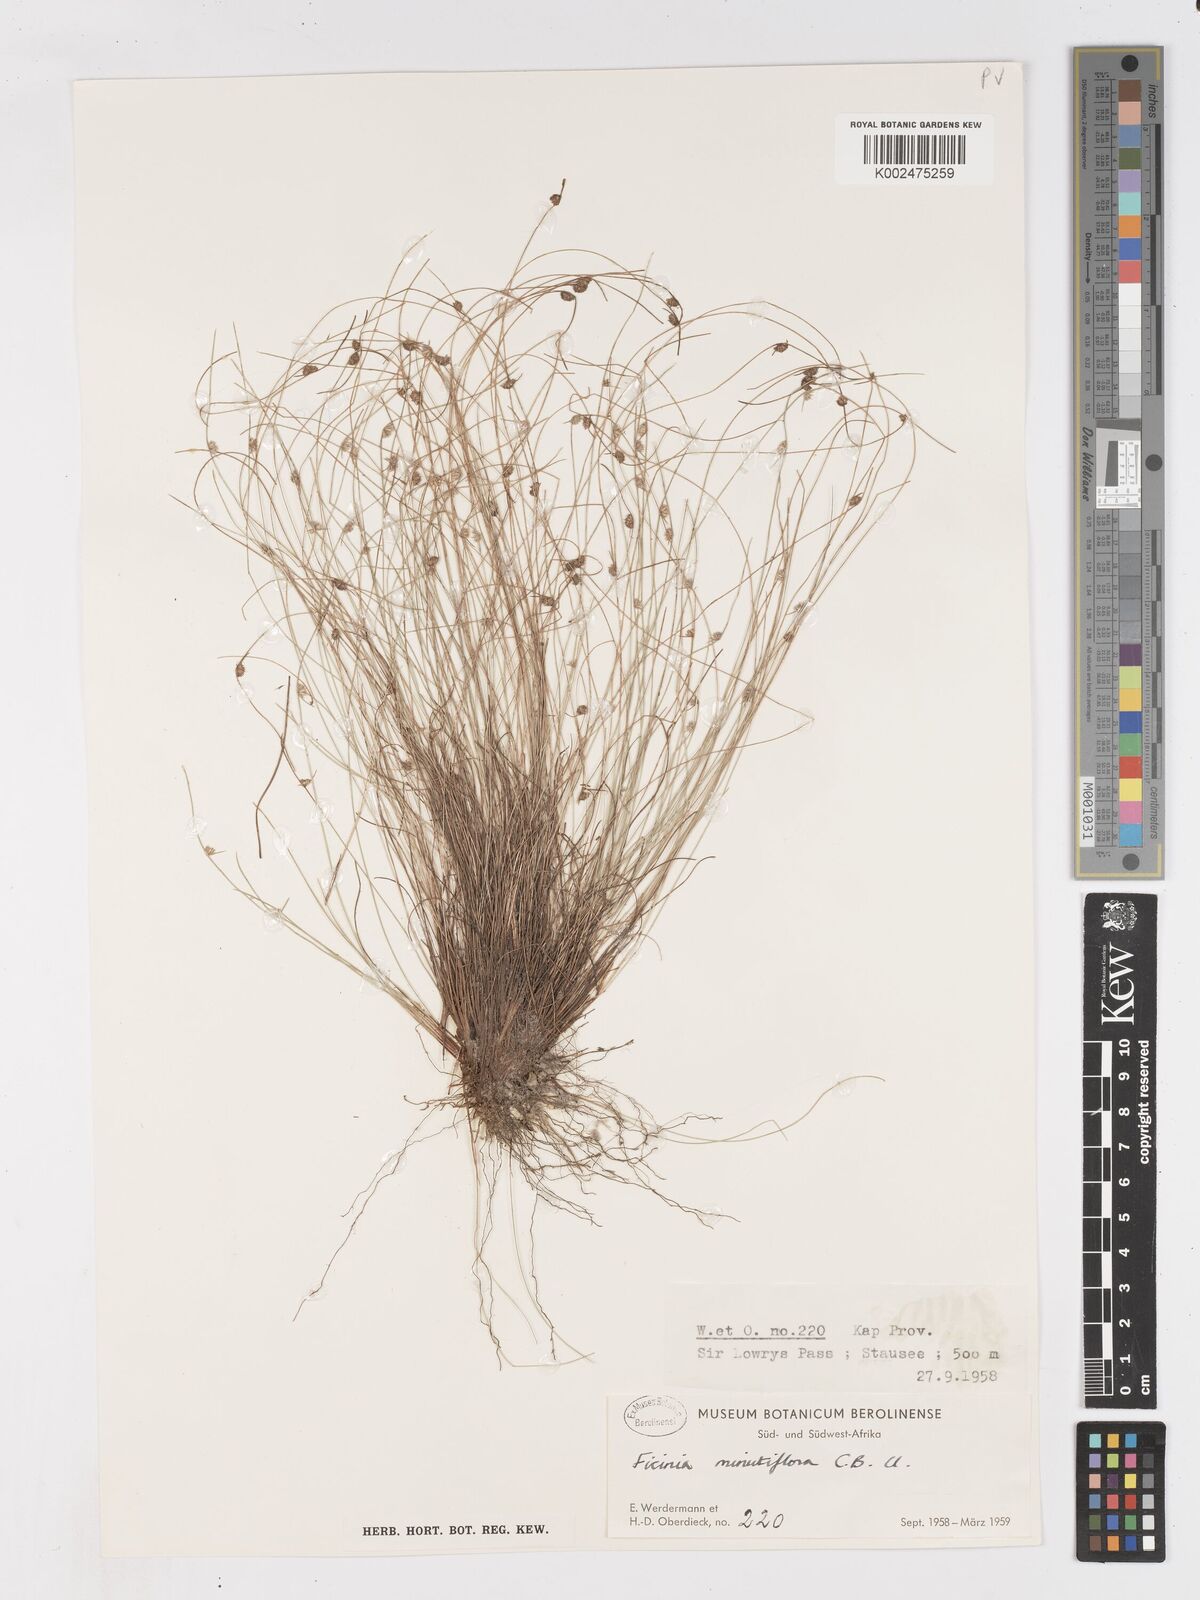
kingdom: Plantae
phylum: Tracheophyta
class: Liliopsida
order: Poales
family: Cyperaceae
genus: Ficinia
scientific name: Ficinia minutiflora
